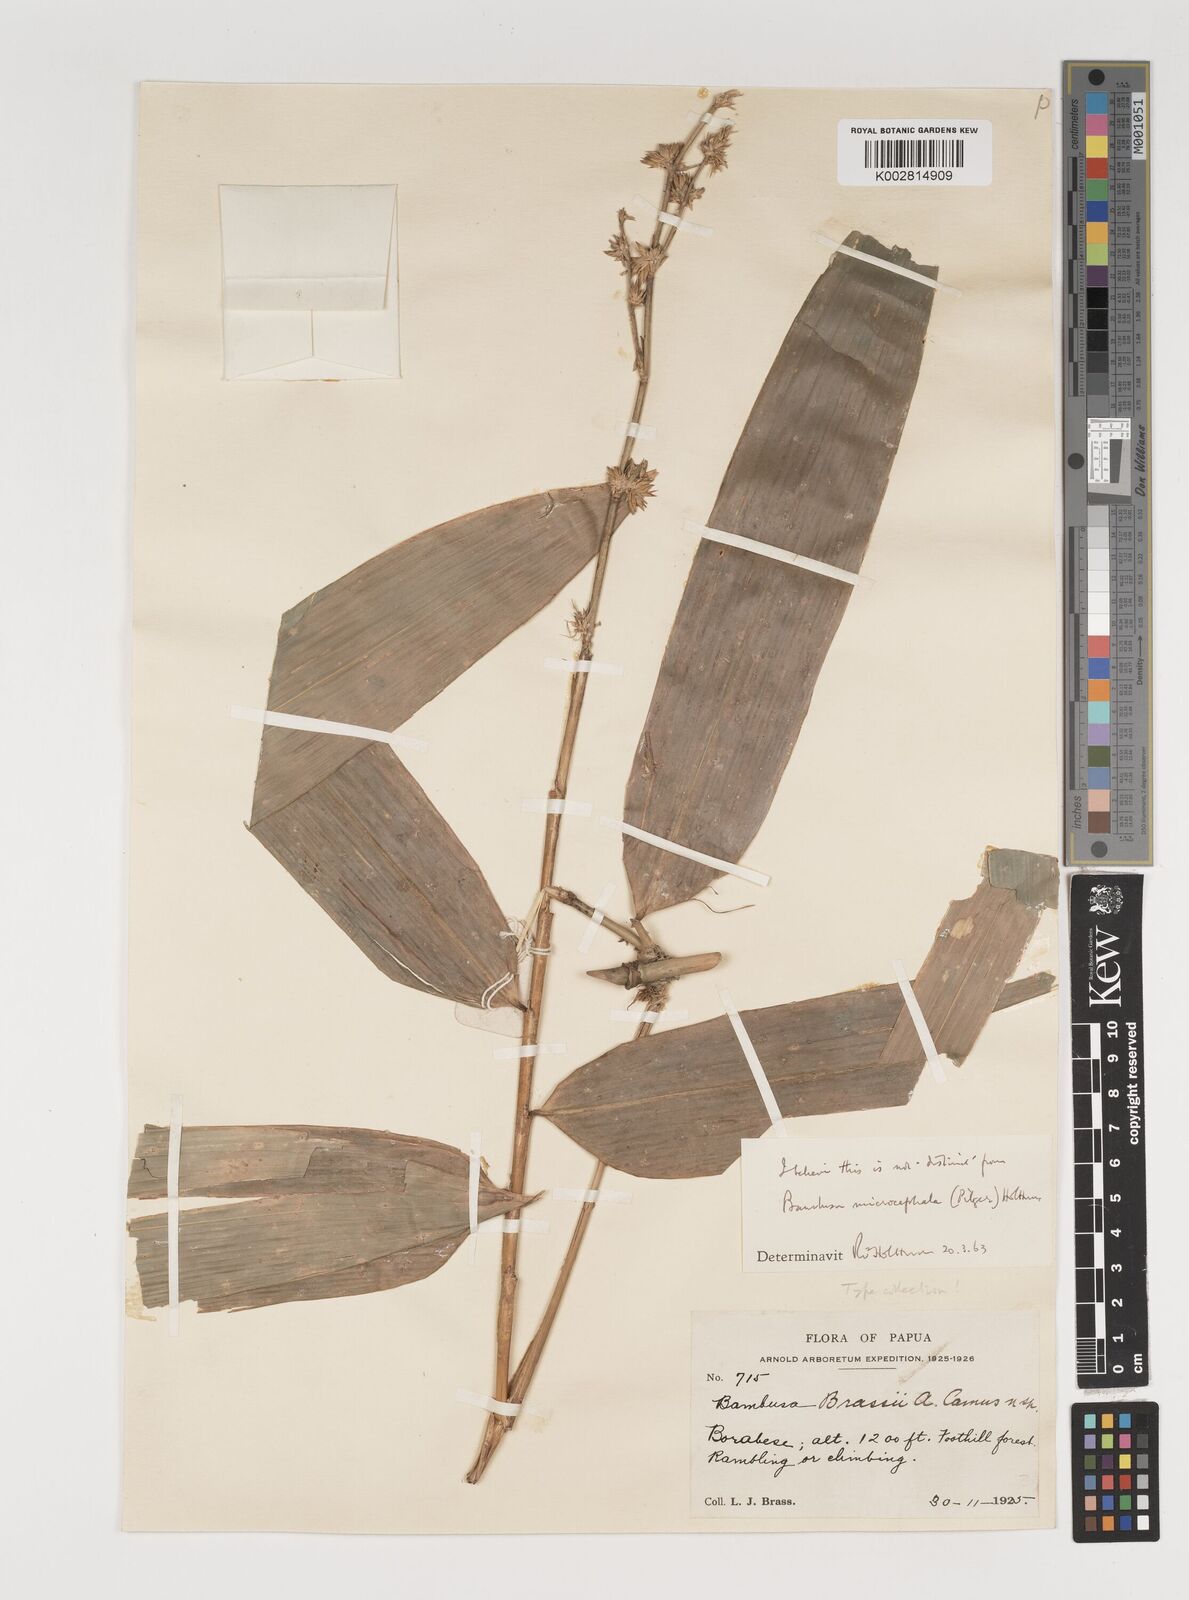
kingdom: Plantae
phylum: Tracheophyta
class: Liliopsida
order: Poales
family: Poaceae
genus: Fimbribambusa
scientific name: Fimbribambusa microcephala
